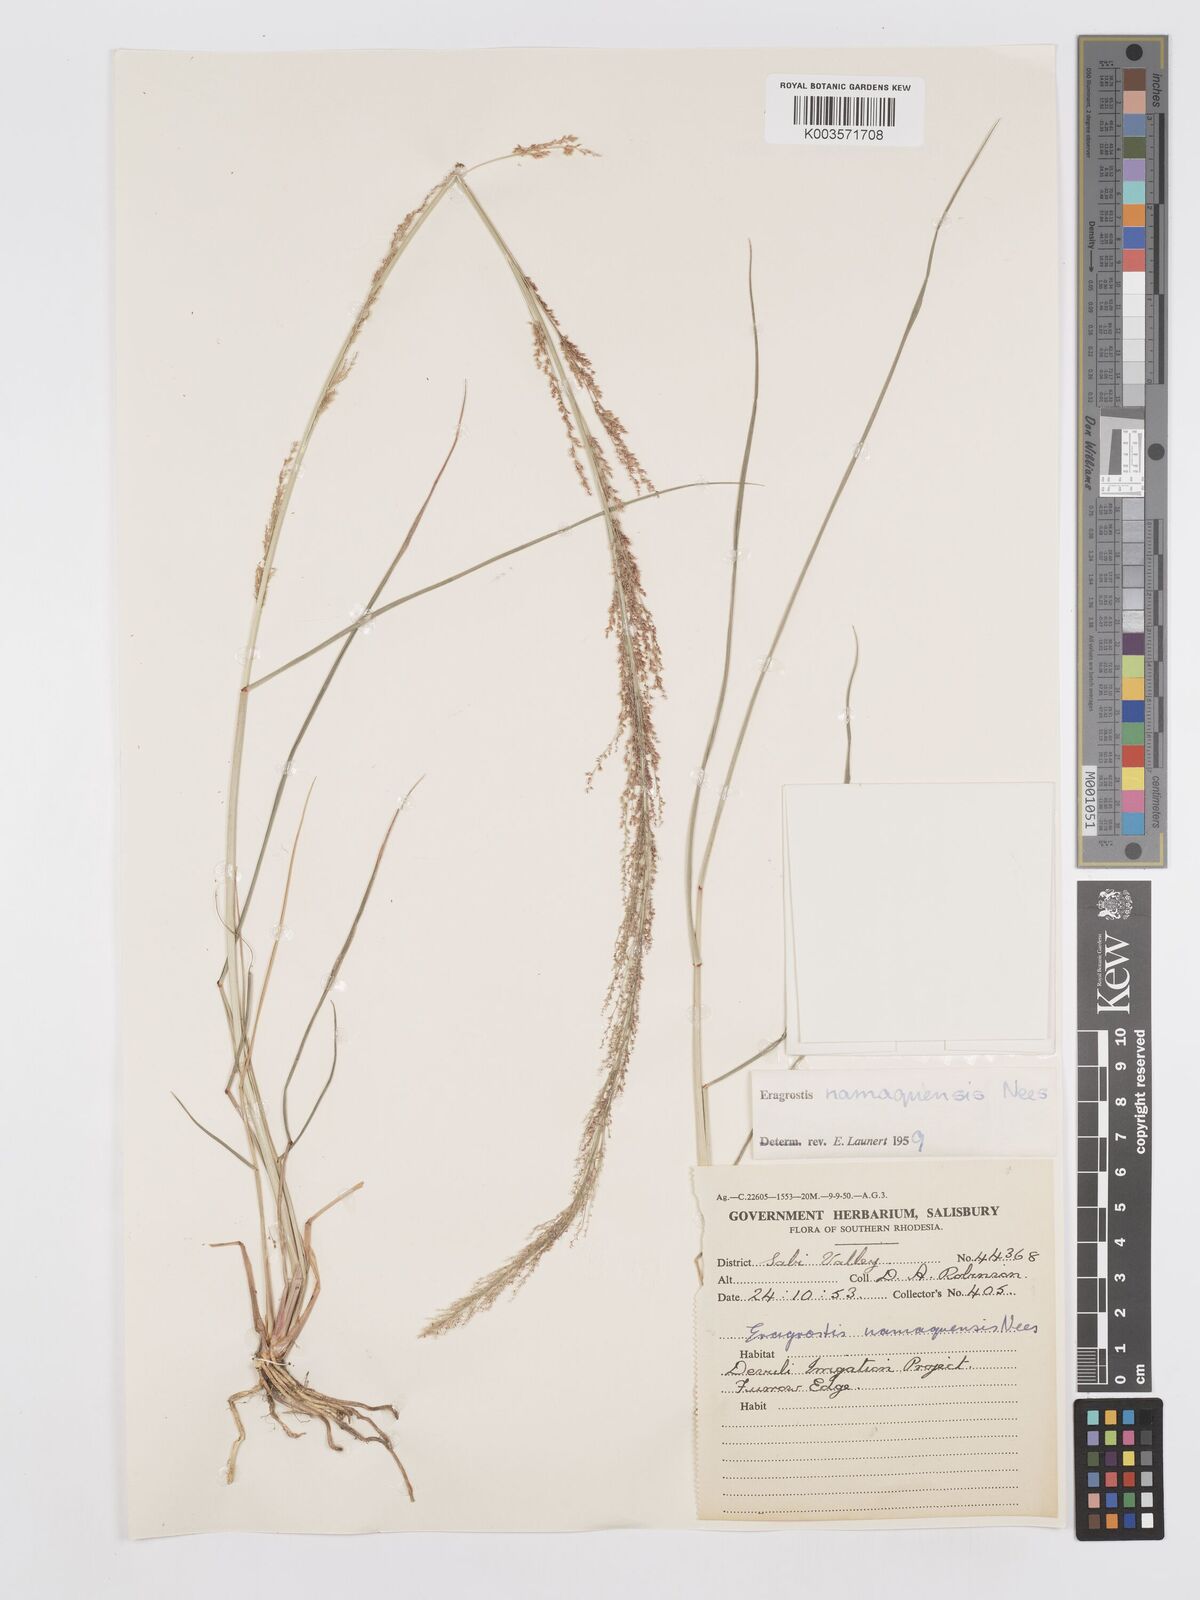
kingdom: Plantae
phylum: Tracheophyta
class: Liliopsida
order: Poales
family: Poaceae
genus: Eragrostis
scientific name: Eragrostis japonica
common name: Pond lovegrass
